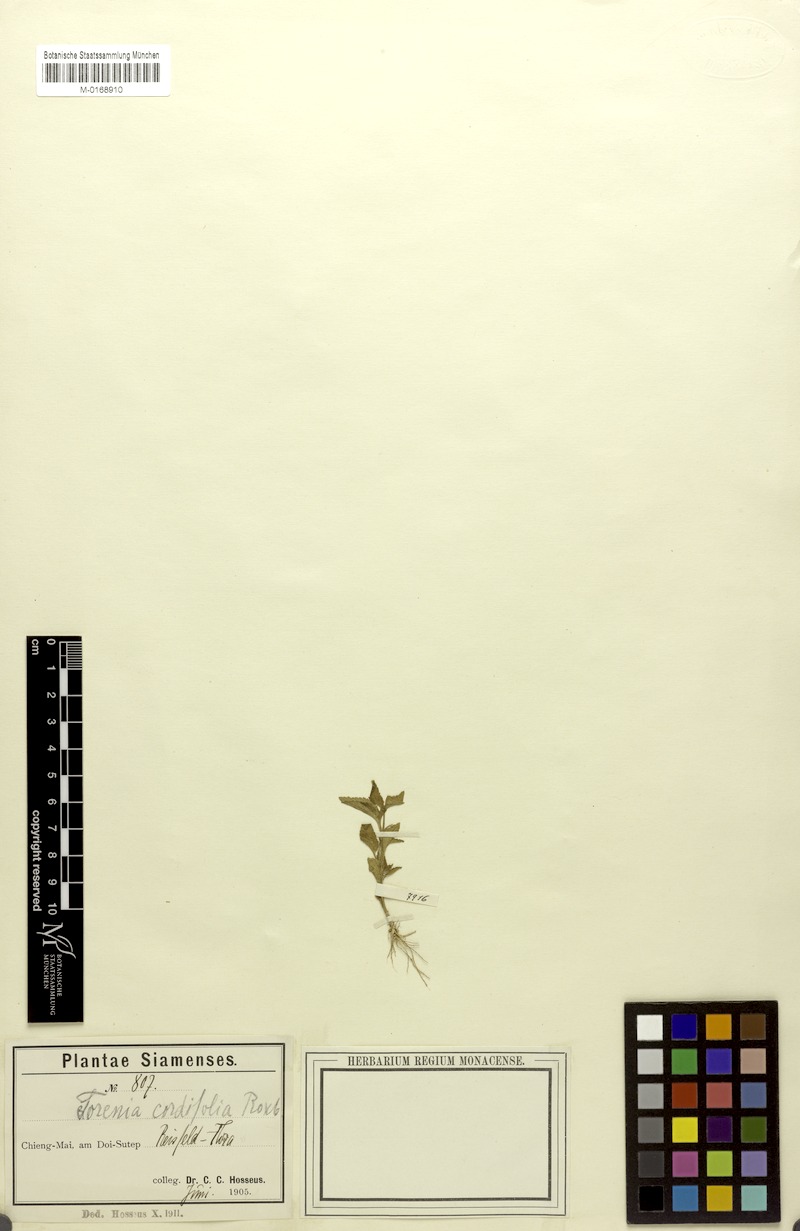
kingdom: Plantae
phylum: Tracheophyta
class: Magnoliopsida
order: Lamiales
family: Linderniaceae
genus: Torenia
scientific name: Torenia cordifolia
